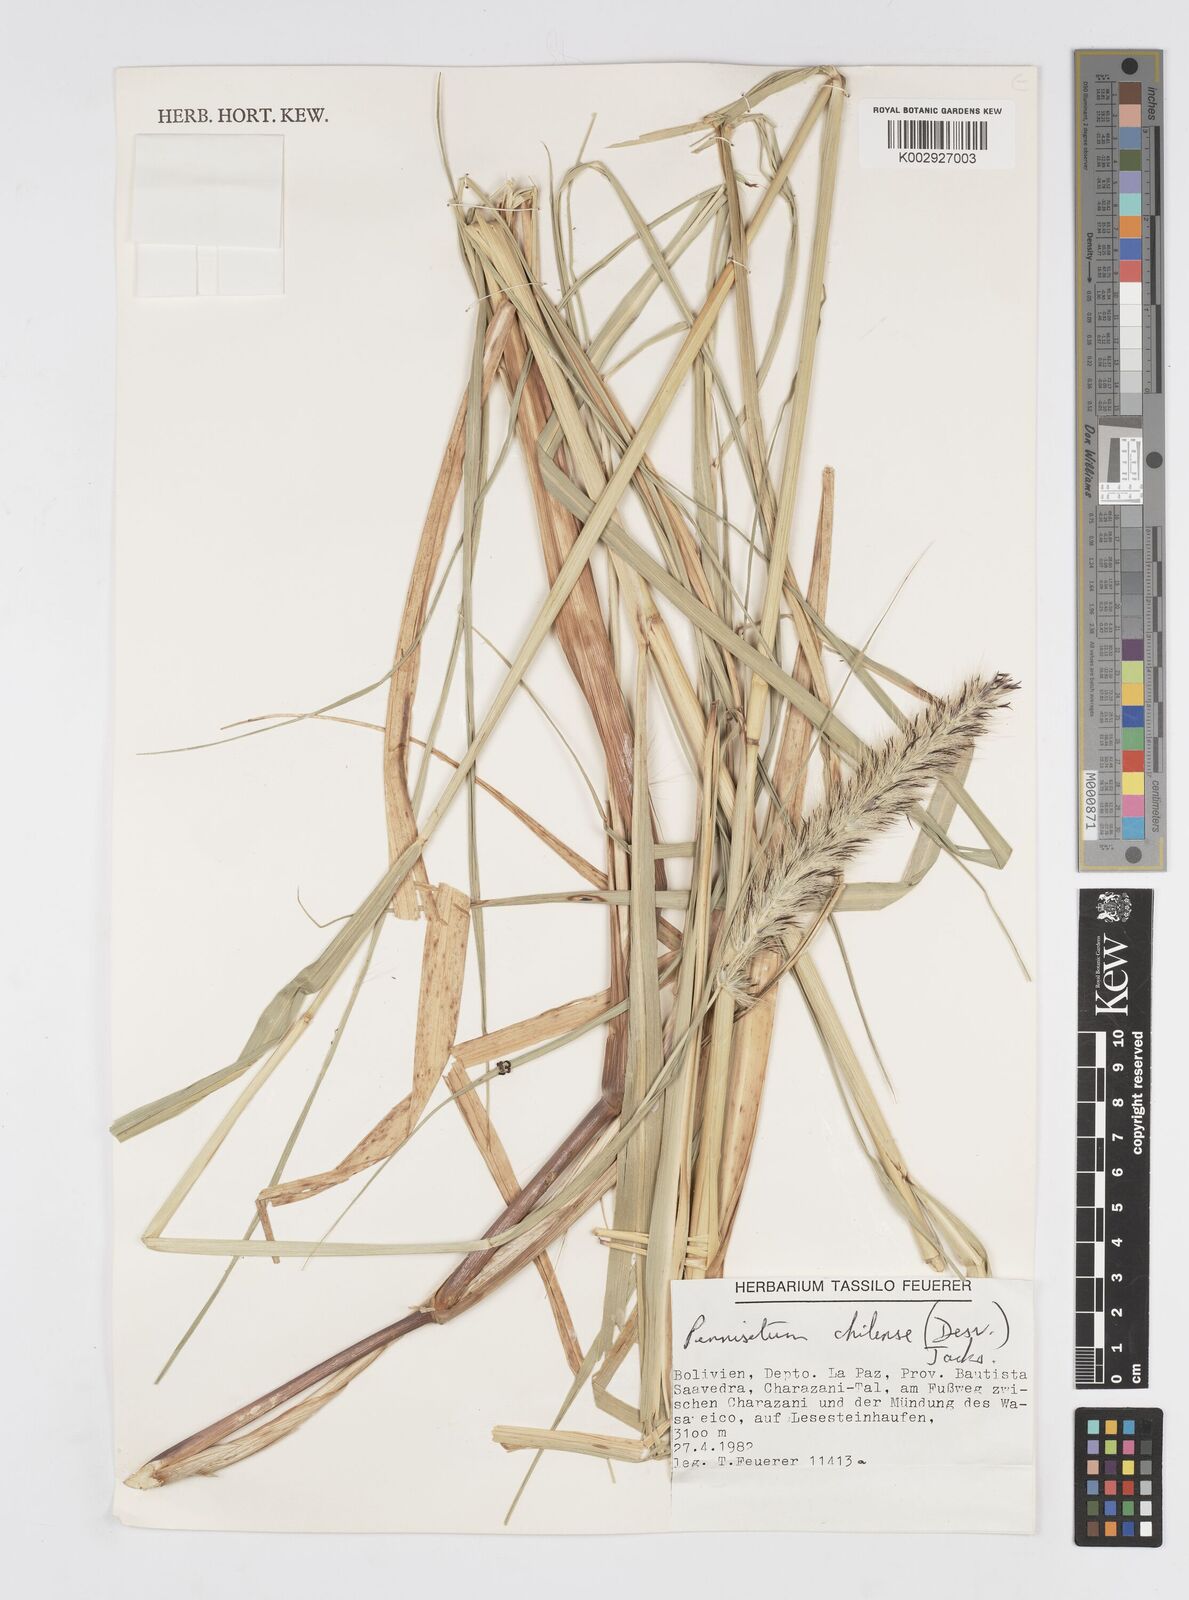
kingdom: Plantae
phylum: Tracheophyta
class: Liliopsida
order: Poales
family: Poaceae
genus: Cenchrus
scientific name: Cenchrus chilensis
